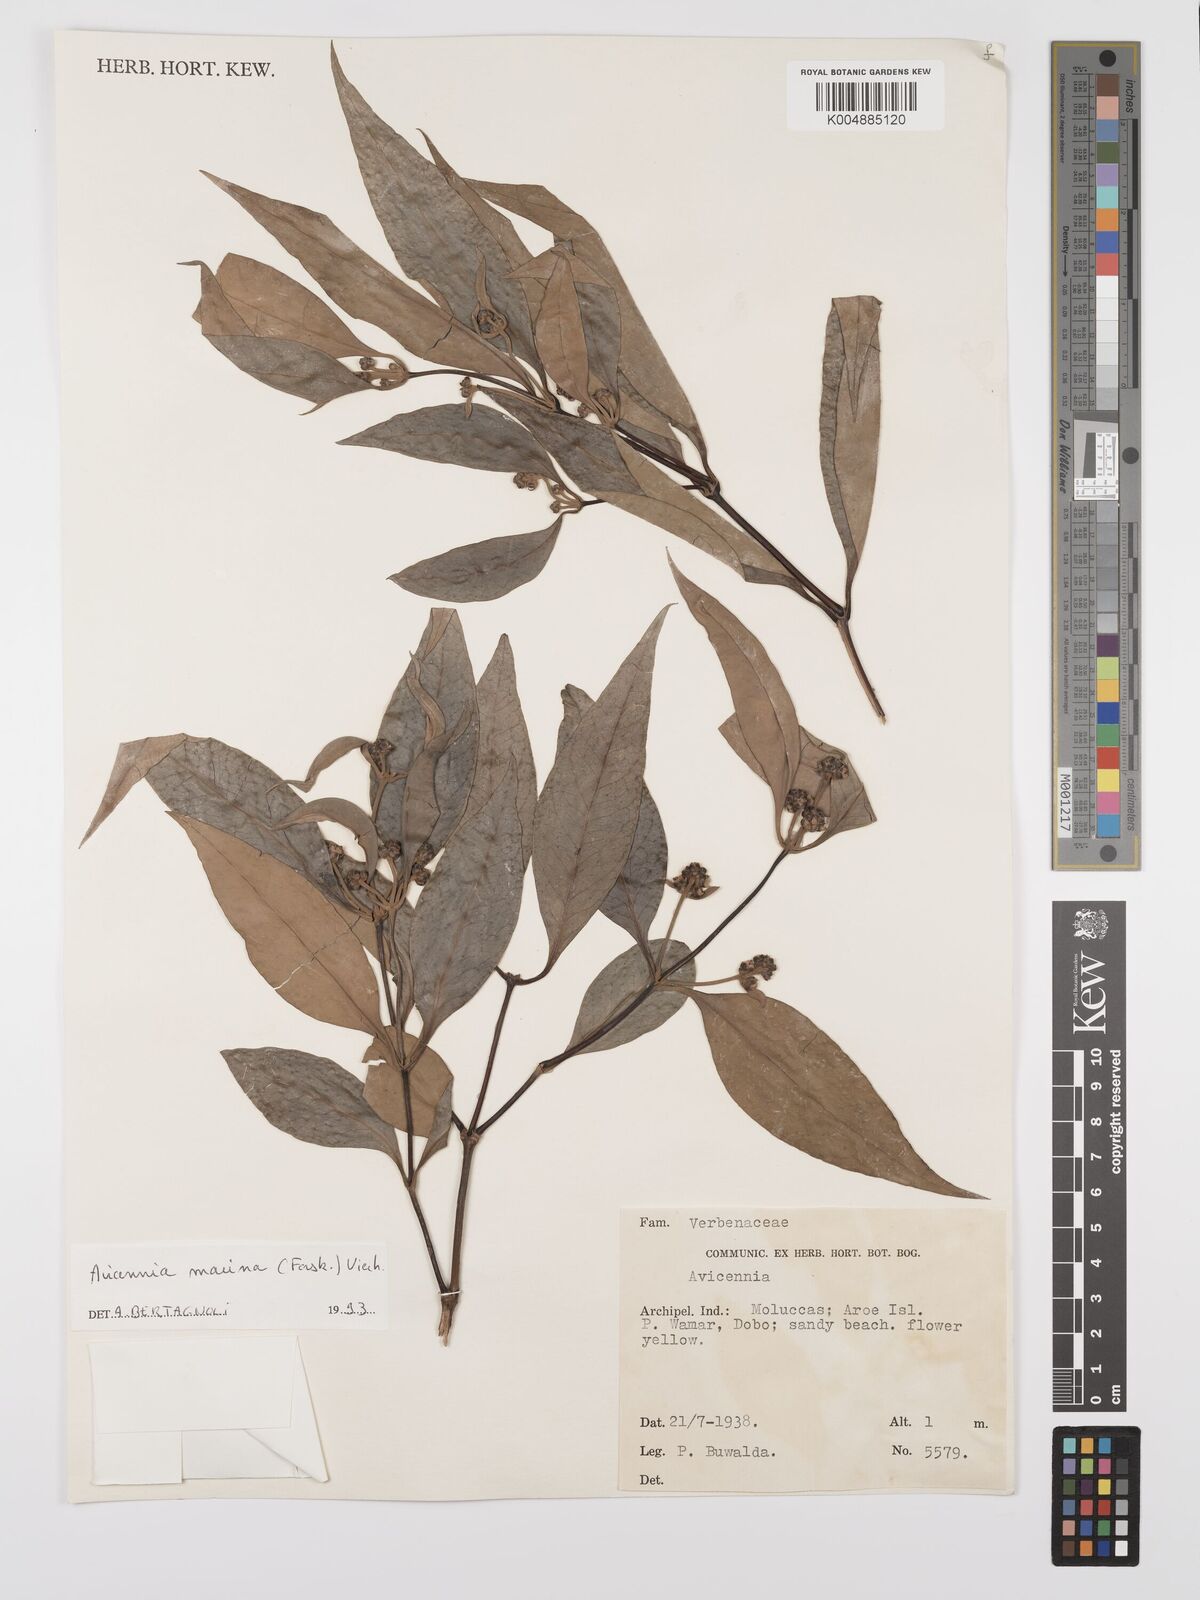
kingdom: Plantae
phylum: Tracheophyta
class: Magnoliopsida
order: Lamiales
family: Acanthaceae
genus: Avicennia
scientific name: Avicennia marina
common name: Gray mangrove
